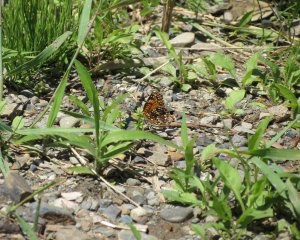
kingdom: Animalia
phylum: Arthropoda
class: Insecta
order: Lepidoptera
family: Nymphalidae
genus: Chlosyne
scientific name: Chlosyne harrisii
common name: Harris's Checkerspot
